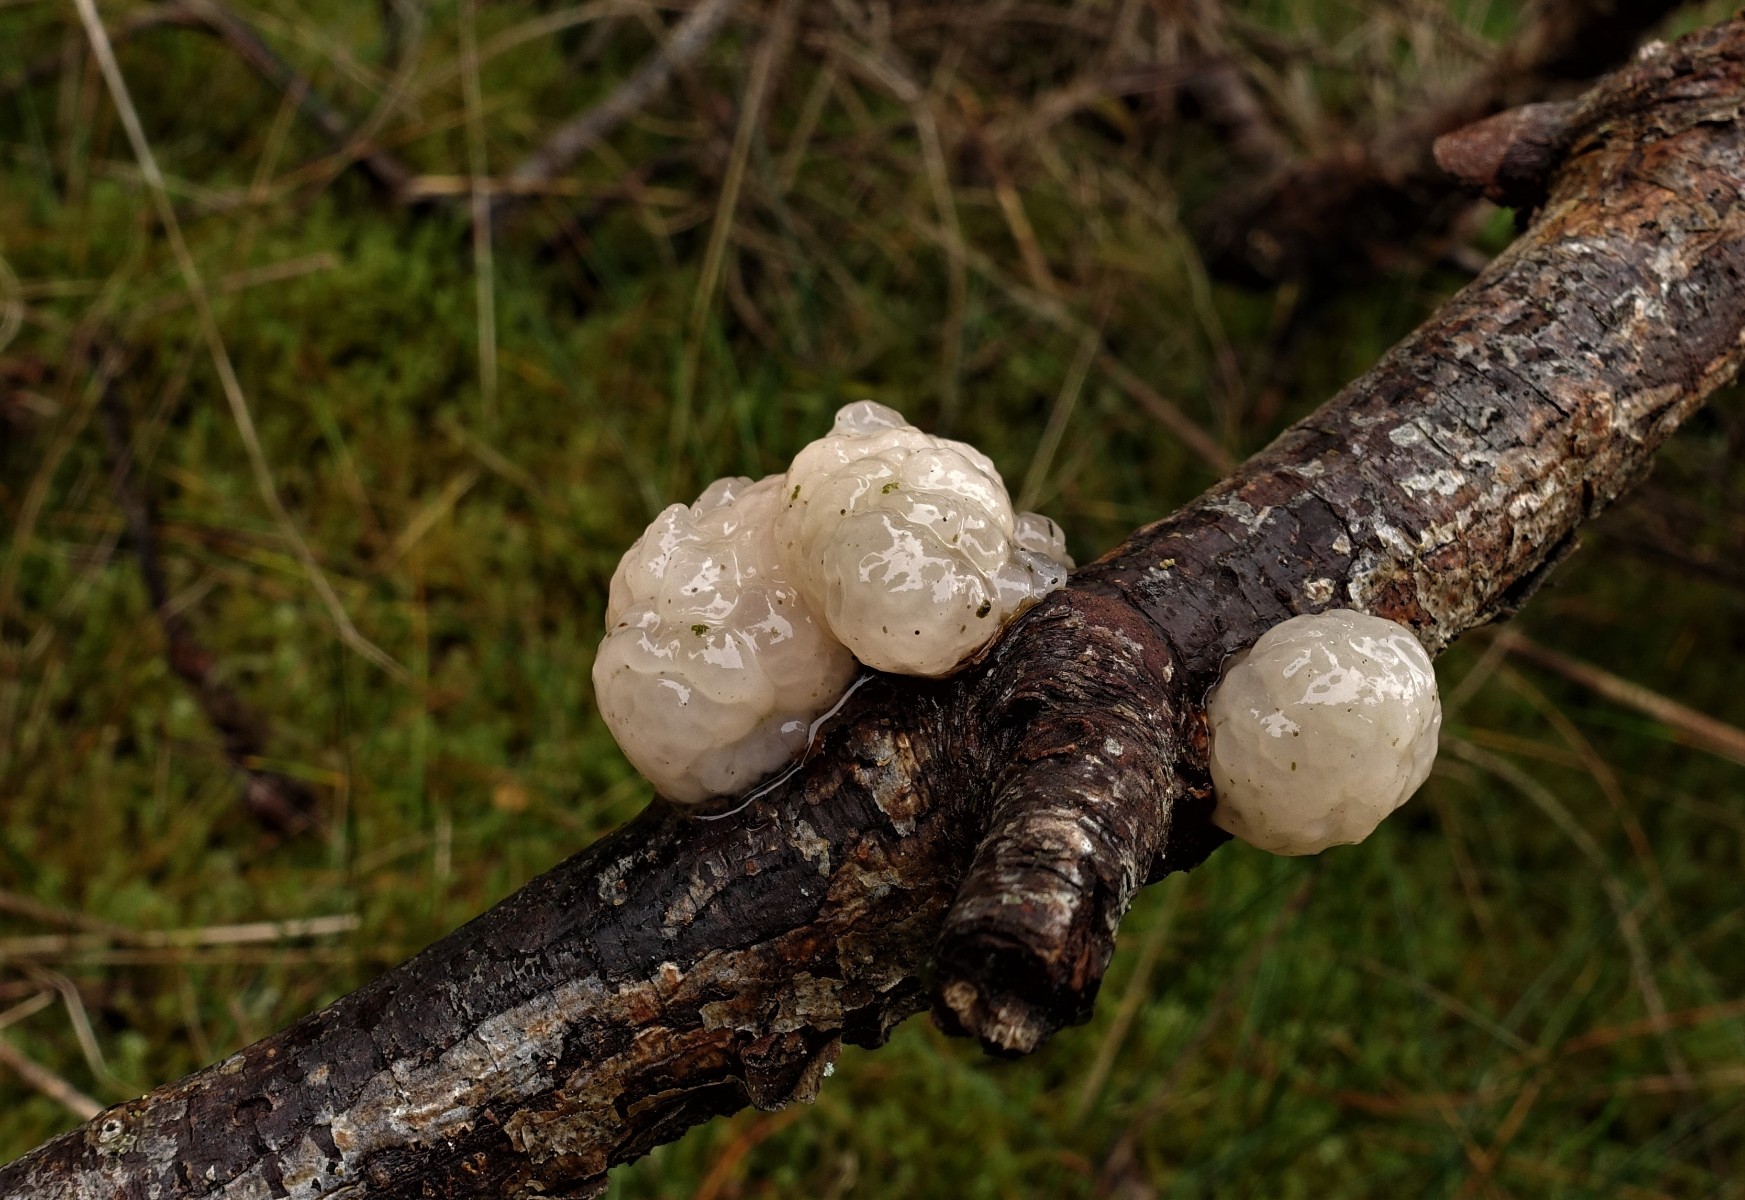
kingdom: Fungi
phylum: Basidiomycota
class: Tremellomycetes
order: Tremellales
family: Naemateliaceae
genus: Naematelia
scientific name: Naematelia encephala
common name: fyrre-bævresvamp
